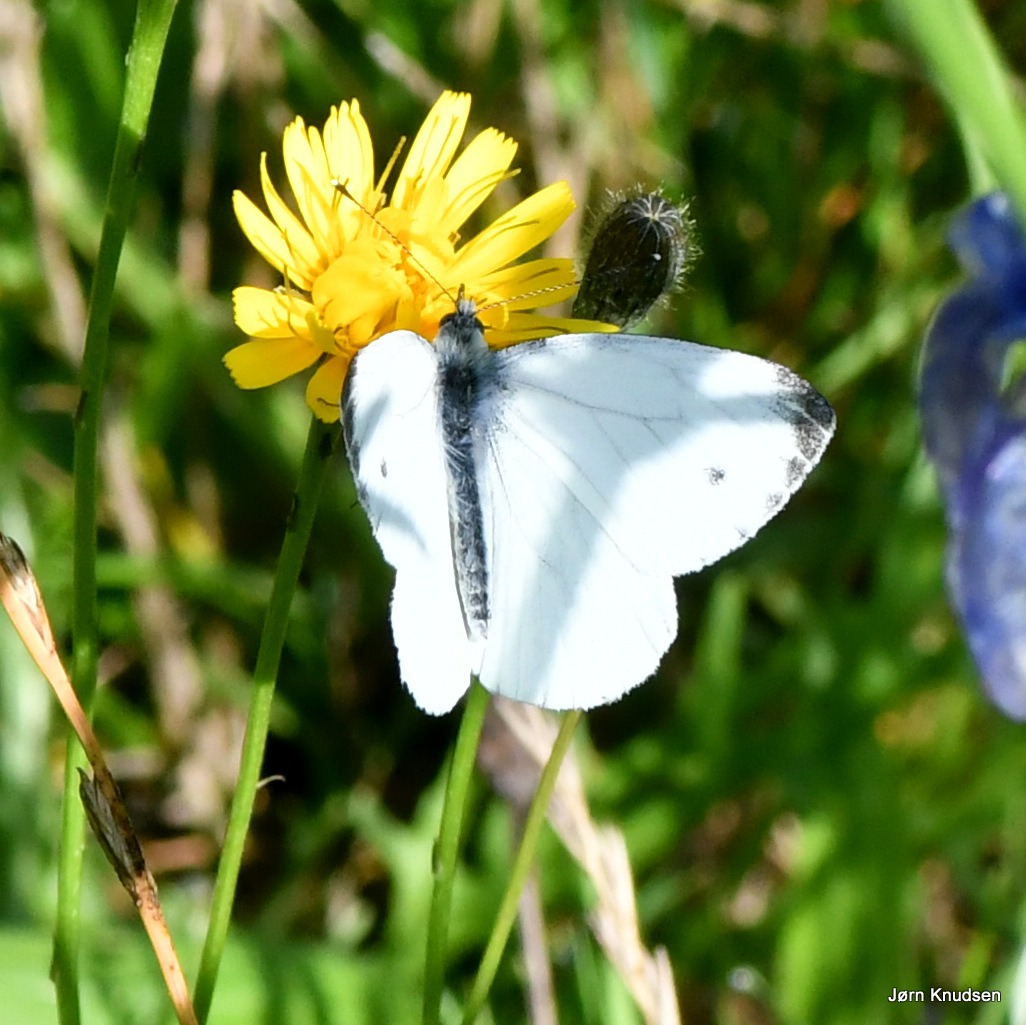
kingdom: Animalia
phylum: Arthropoda
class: Insecta
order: Lepidoptera
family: Pieridae
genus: Pieris
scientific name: Pieris napi
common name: Grønåret kålsommerfugl
